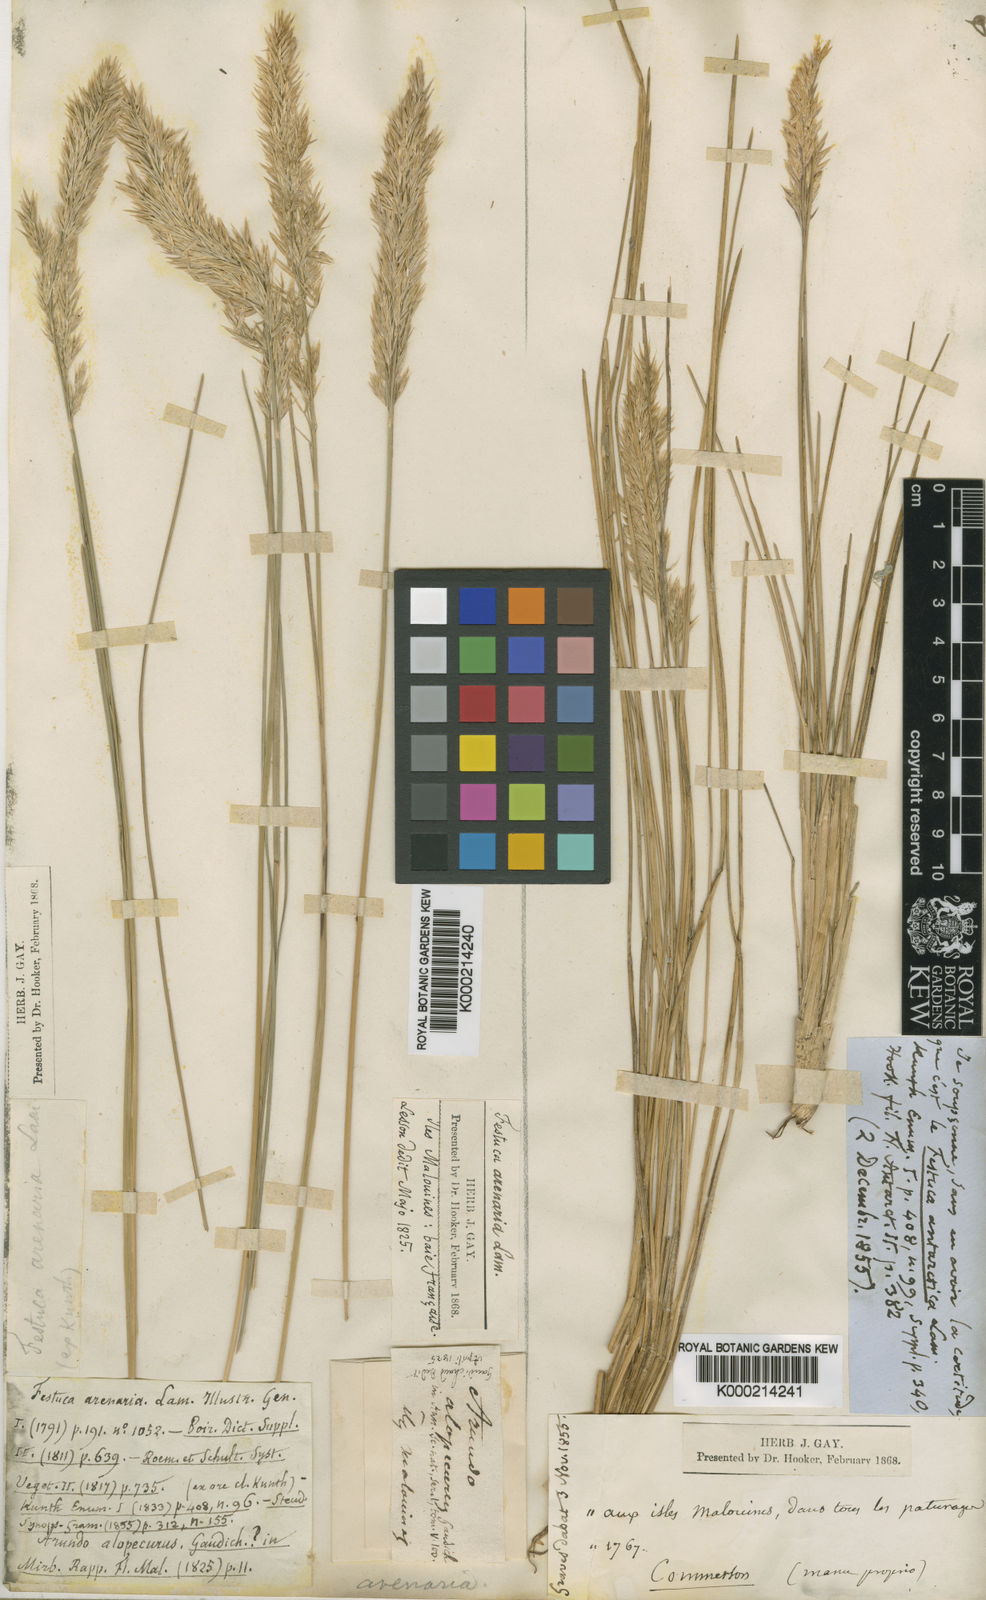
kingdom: Plantae
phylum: Tracheophyta
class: Liliopsida
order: Poales
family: Poaceae
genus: Poa
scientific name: Poa alopecurus
